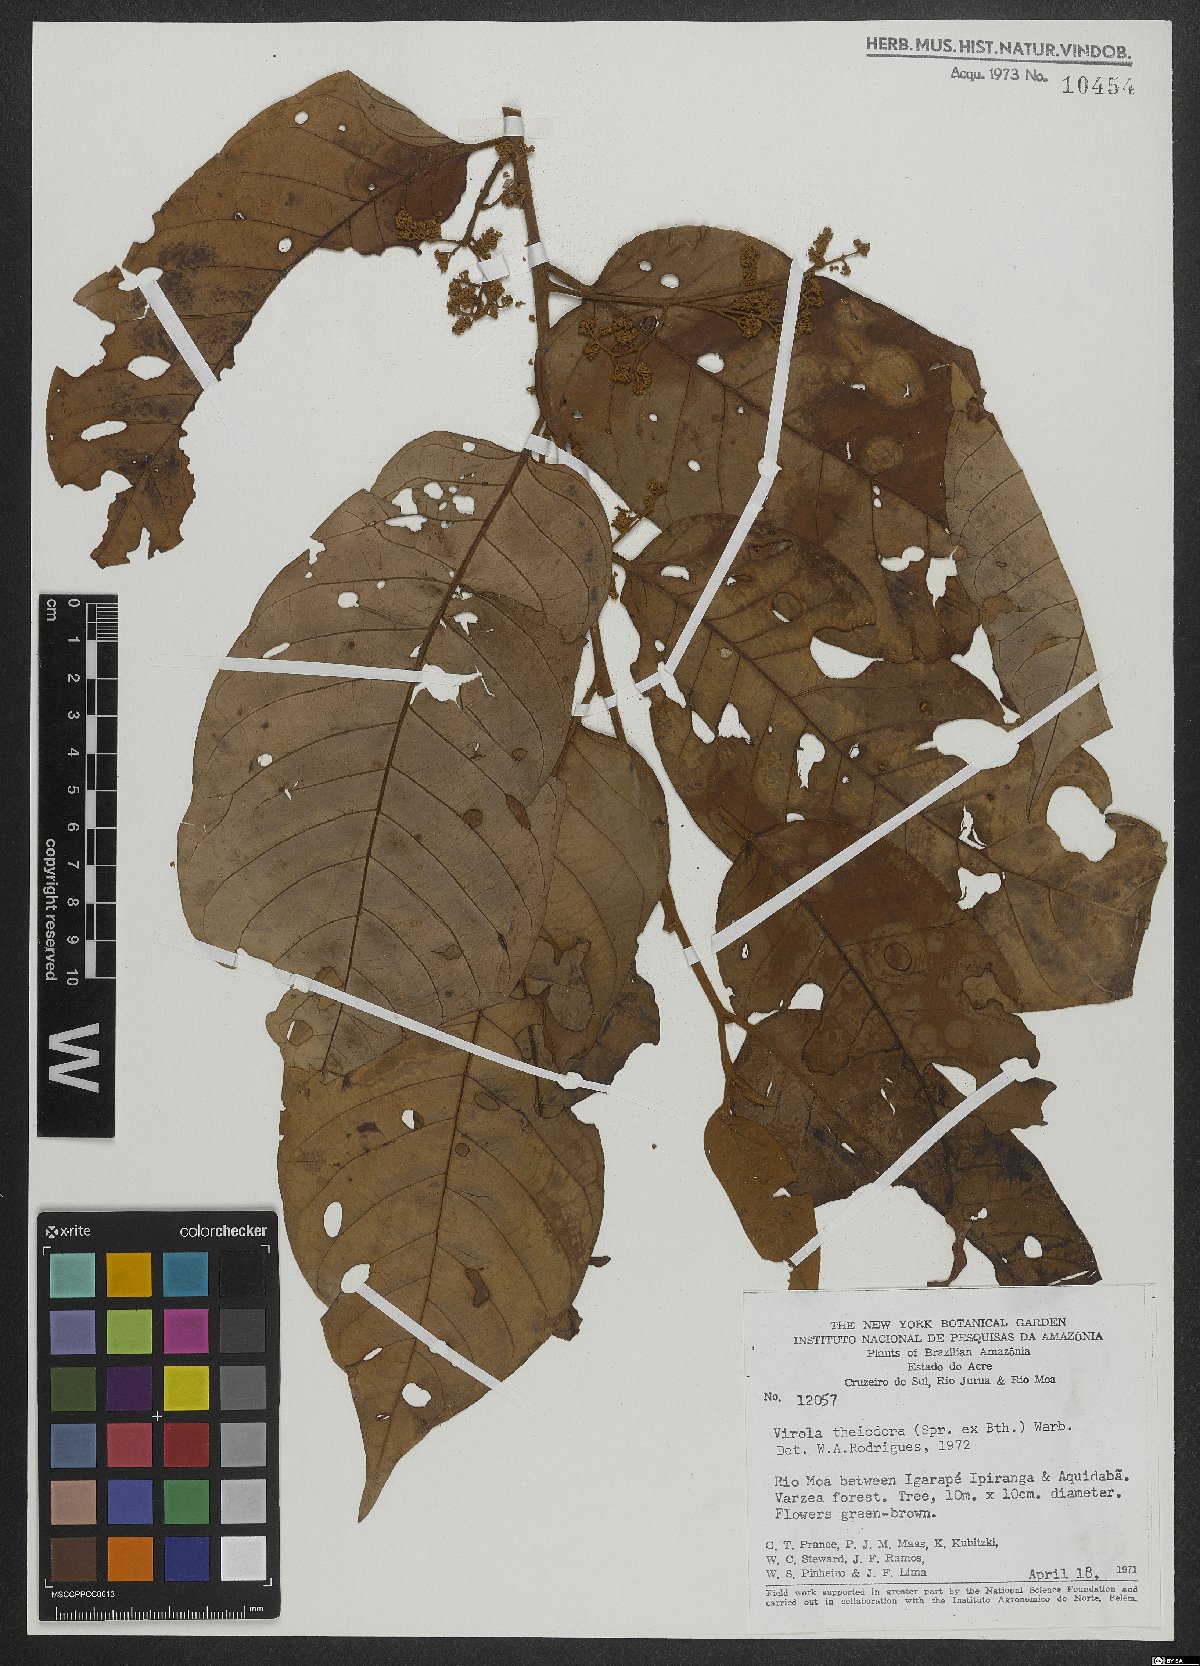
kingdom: Plantae
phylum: Tracheophyta
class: Magnoliopsida
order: Magnoliales
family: Myristicaceae
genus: Virola
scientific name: Virola theiodora
